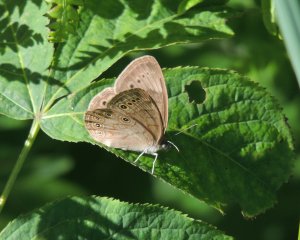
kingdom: Animalia
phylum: Arthropoda
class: Insecta
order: Lepidoptera
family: Nymphalidae
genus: Lethe
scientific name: Lethe eurydice
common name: Eyed Brown
